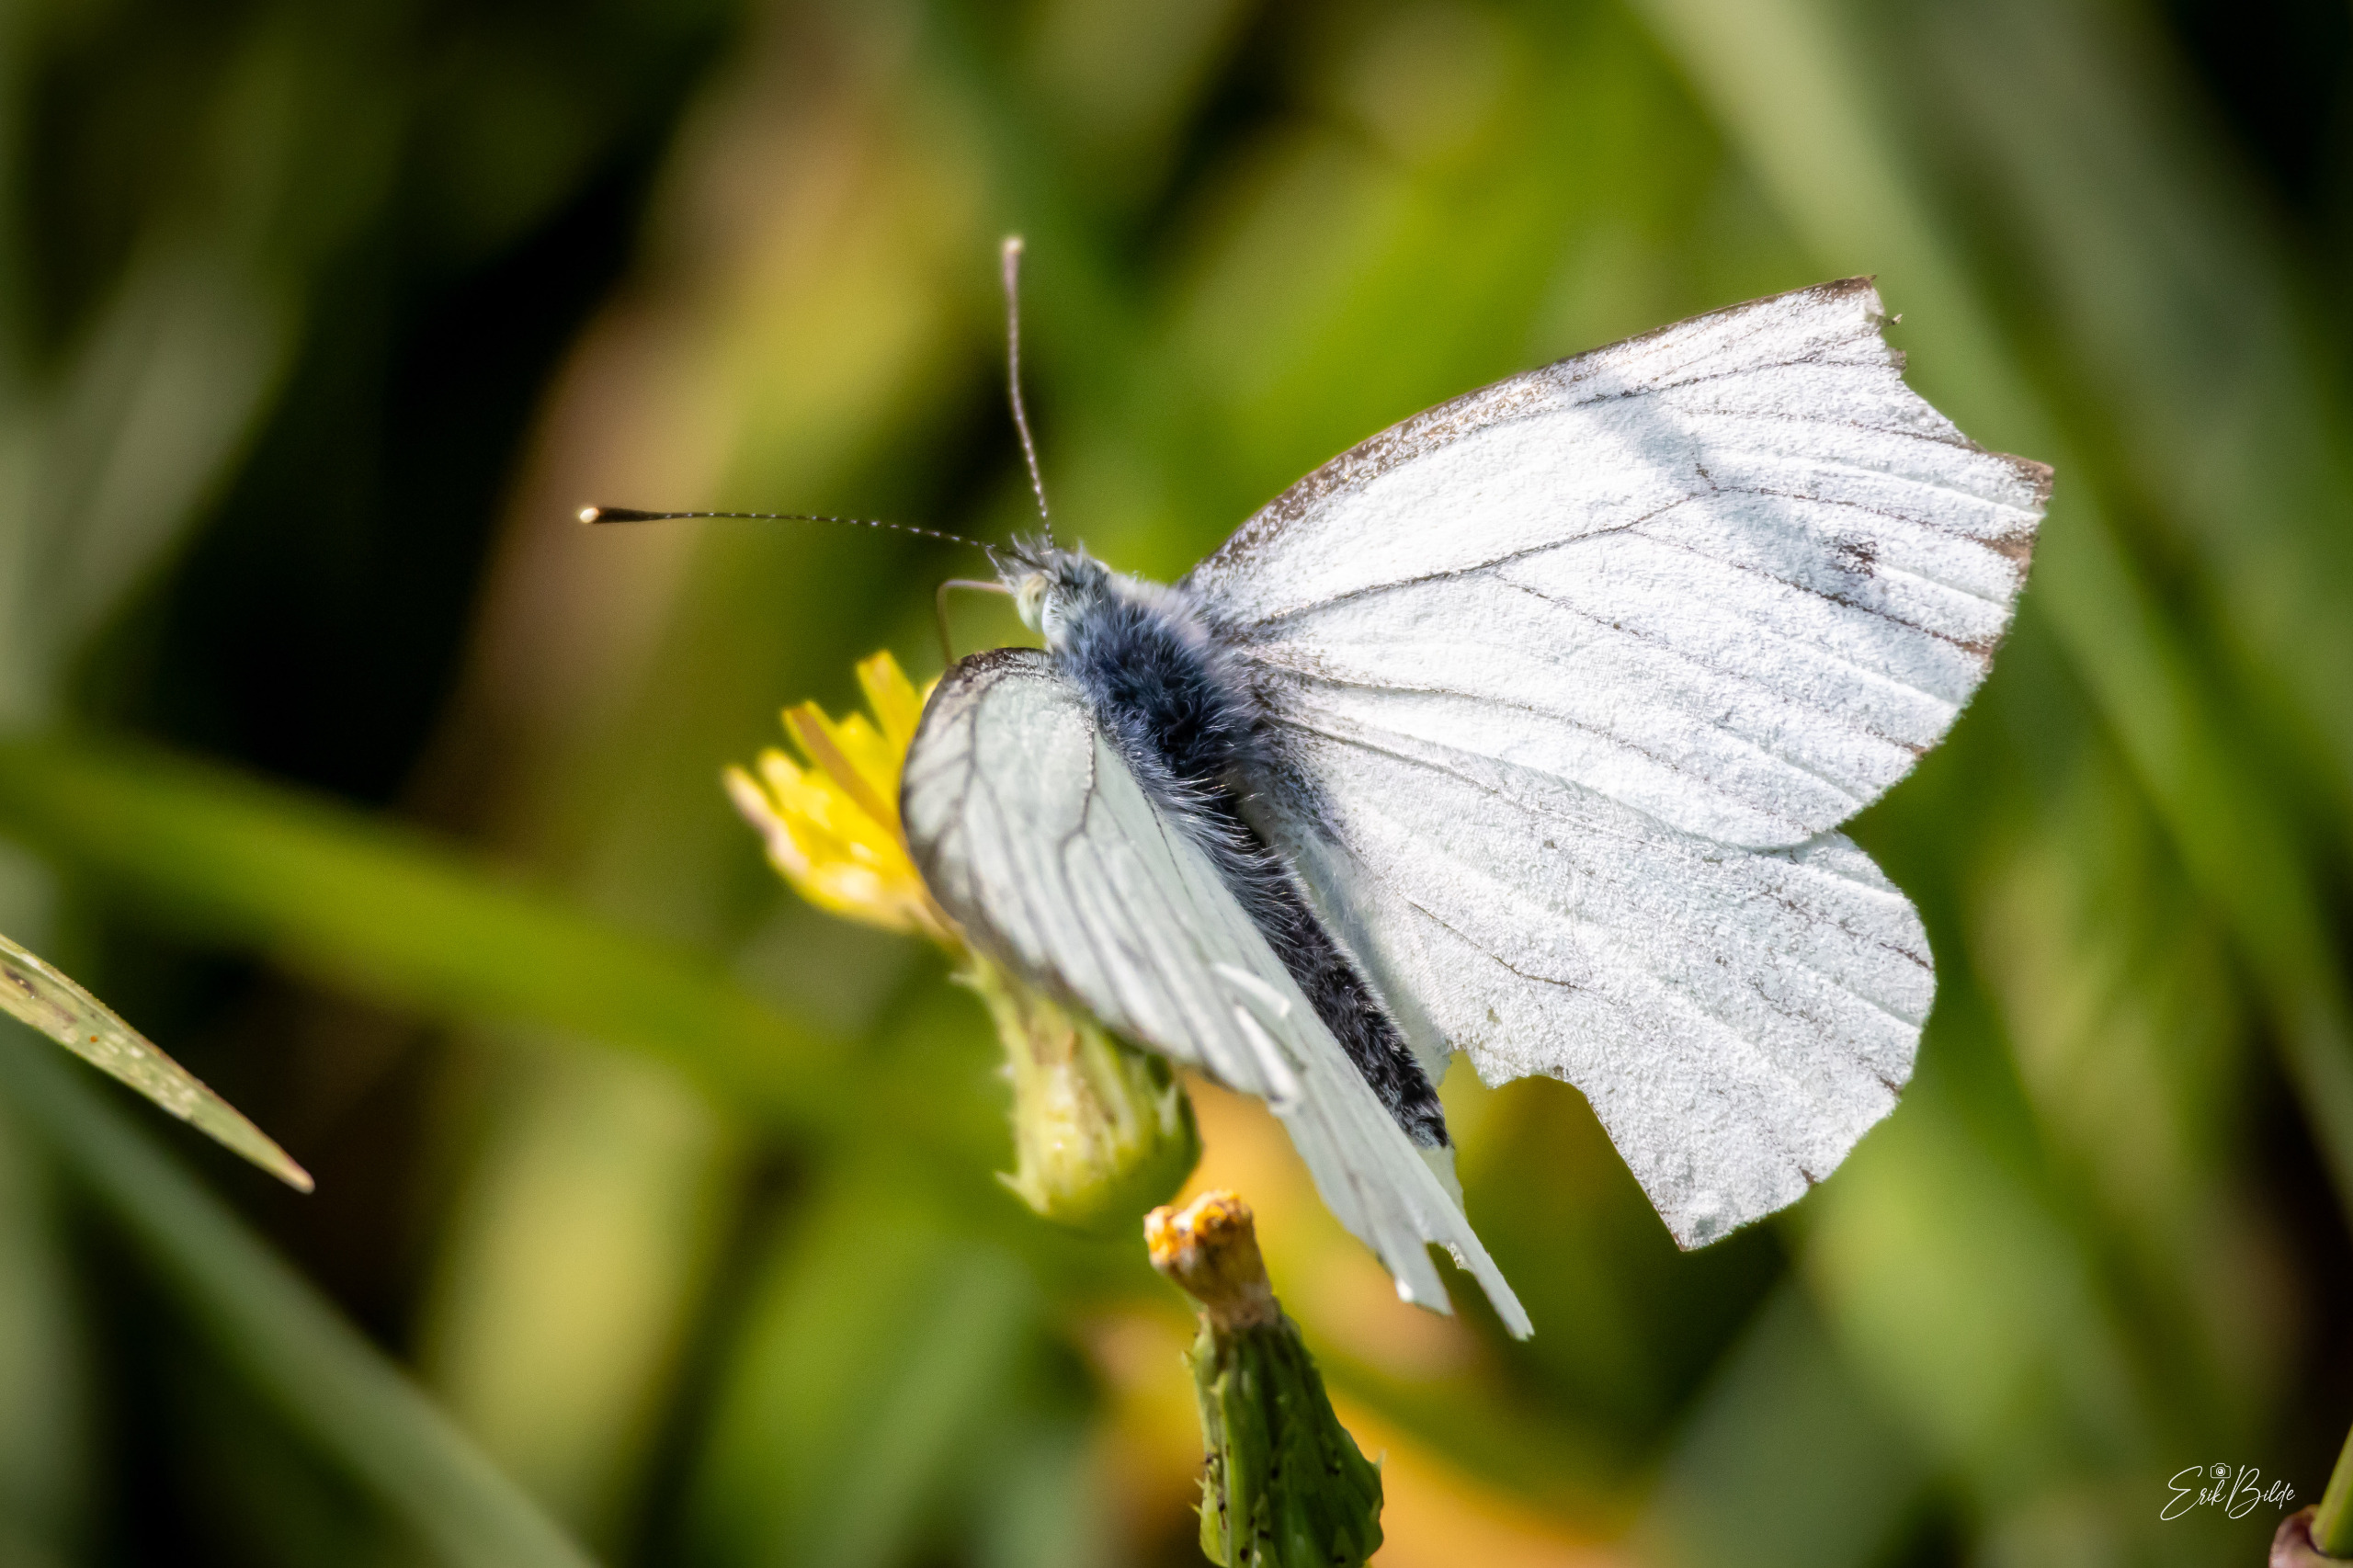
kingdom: Animalia
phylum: Arthropoda
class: Insecta
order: Lepidoptera
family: Pieridae
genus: Pieris
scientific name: Pieris napi
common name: Grønåret kålsommerfugl
